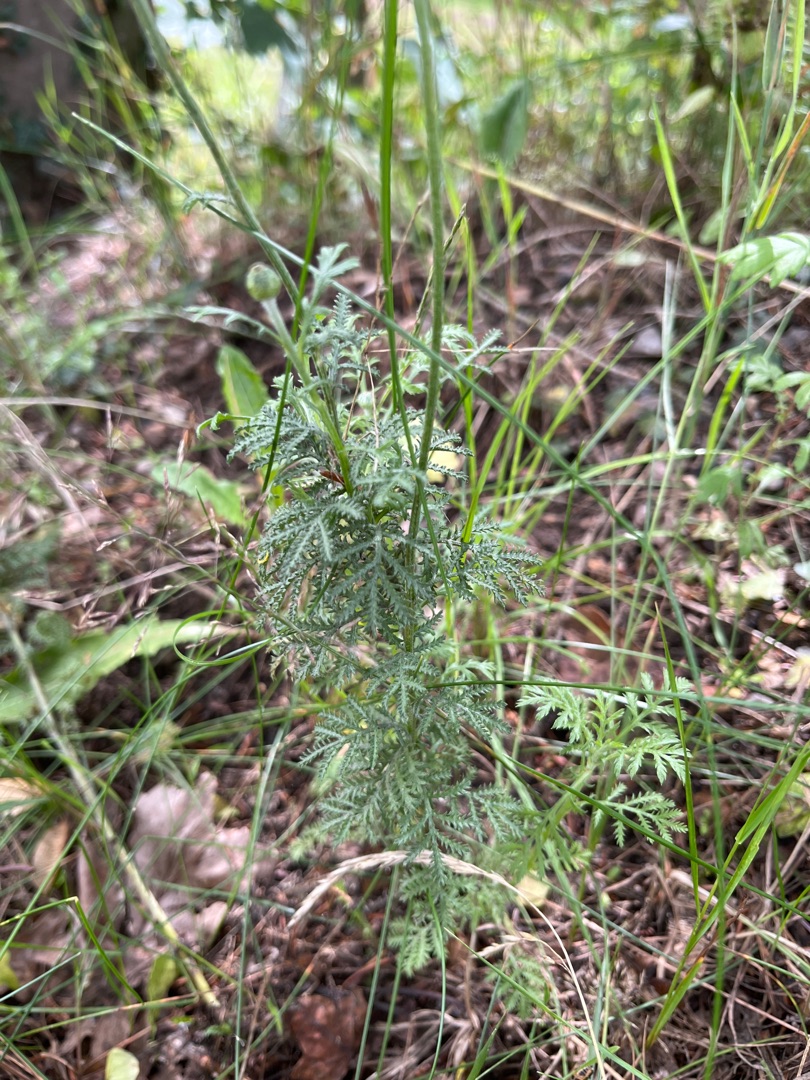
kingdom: Plantae
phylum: Tracheophyta
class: Magnoliopsida
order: Asterales
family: Asteraceae
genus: Cota
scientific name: Cota tinctoria
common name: Farve-gåseurt
